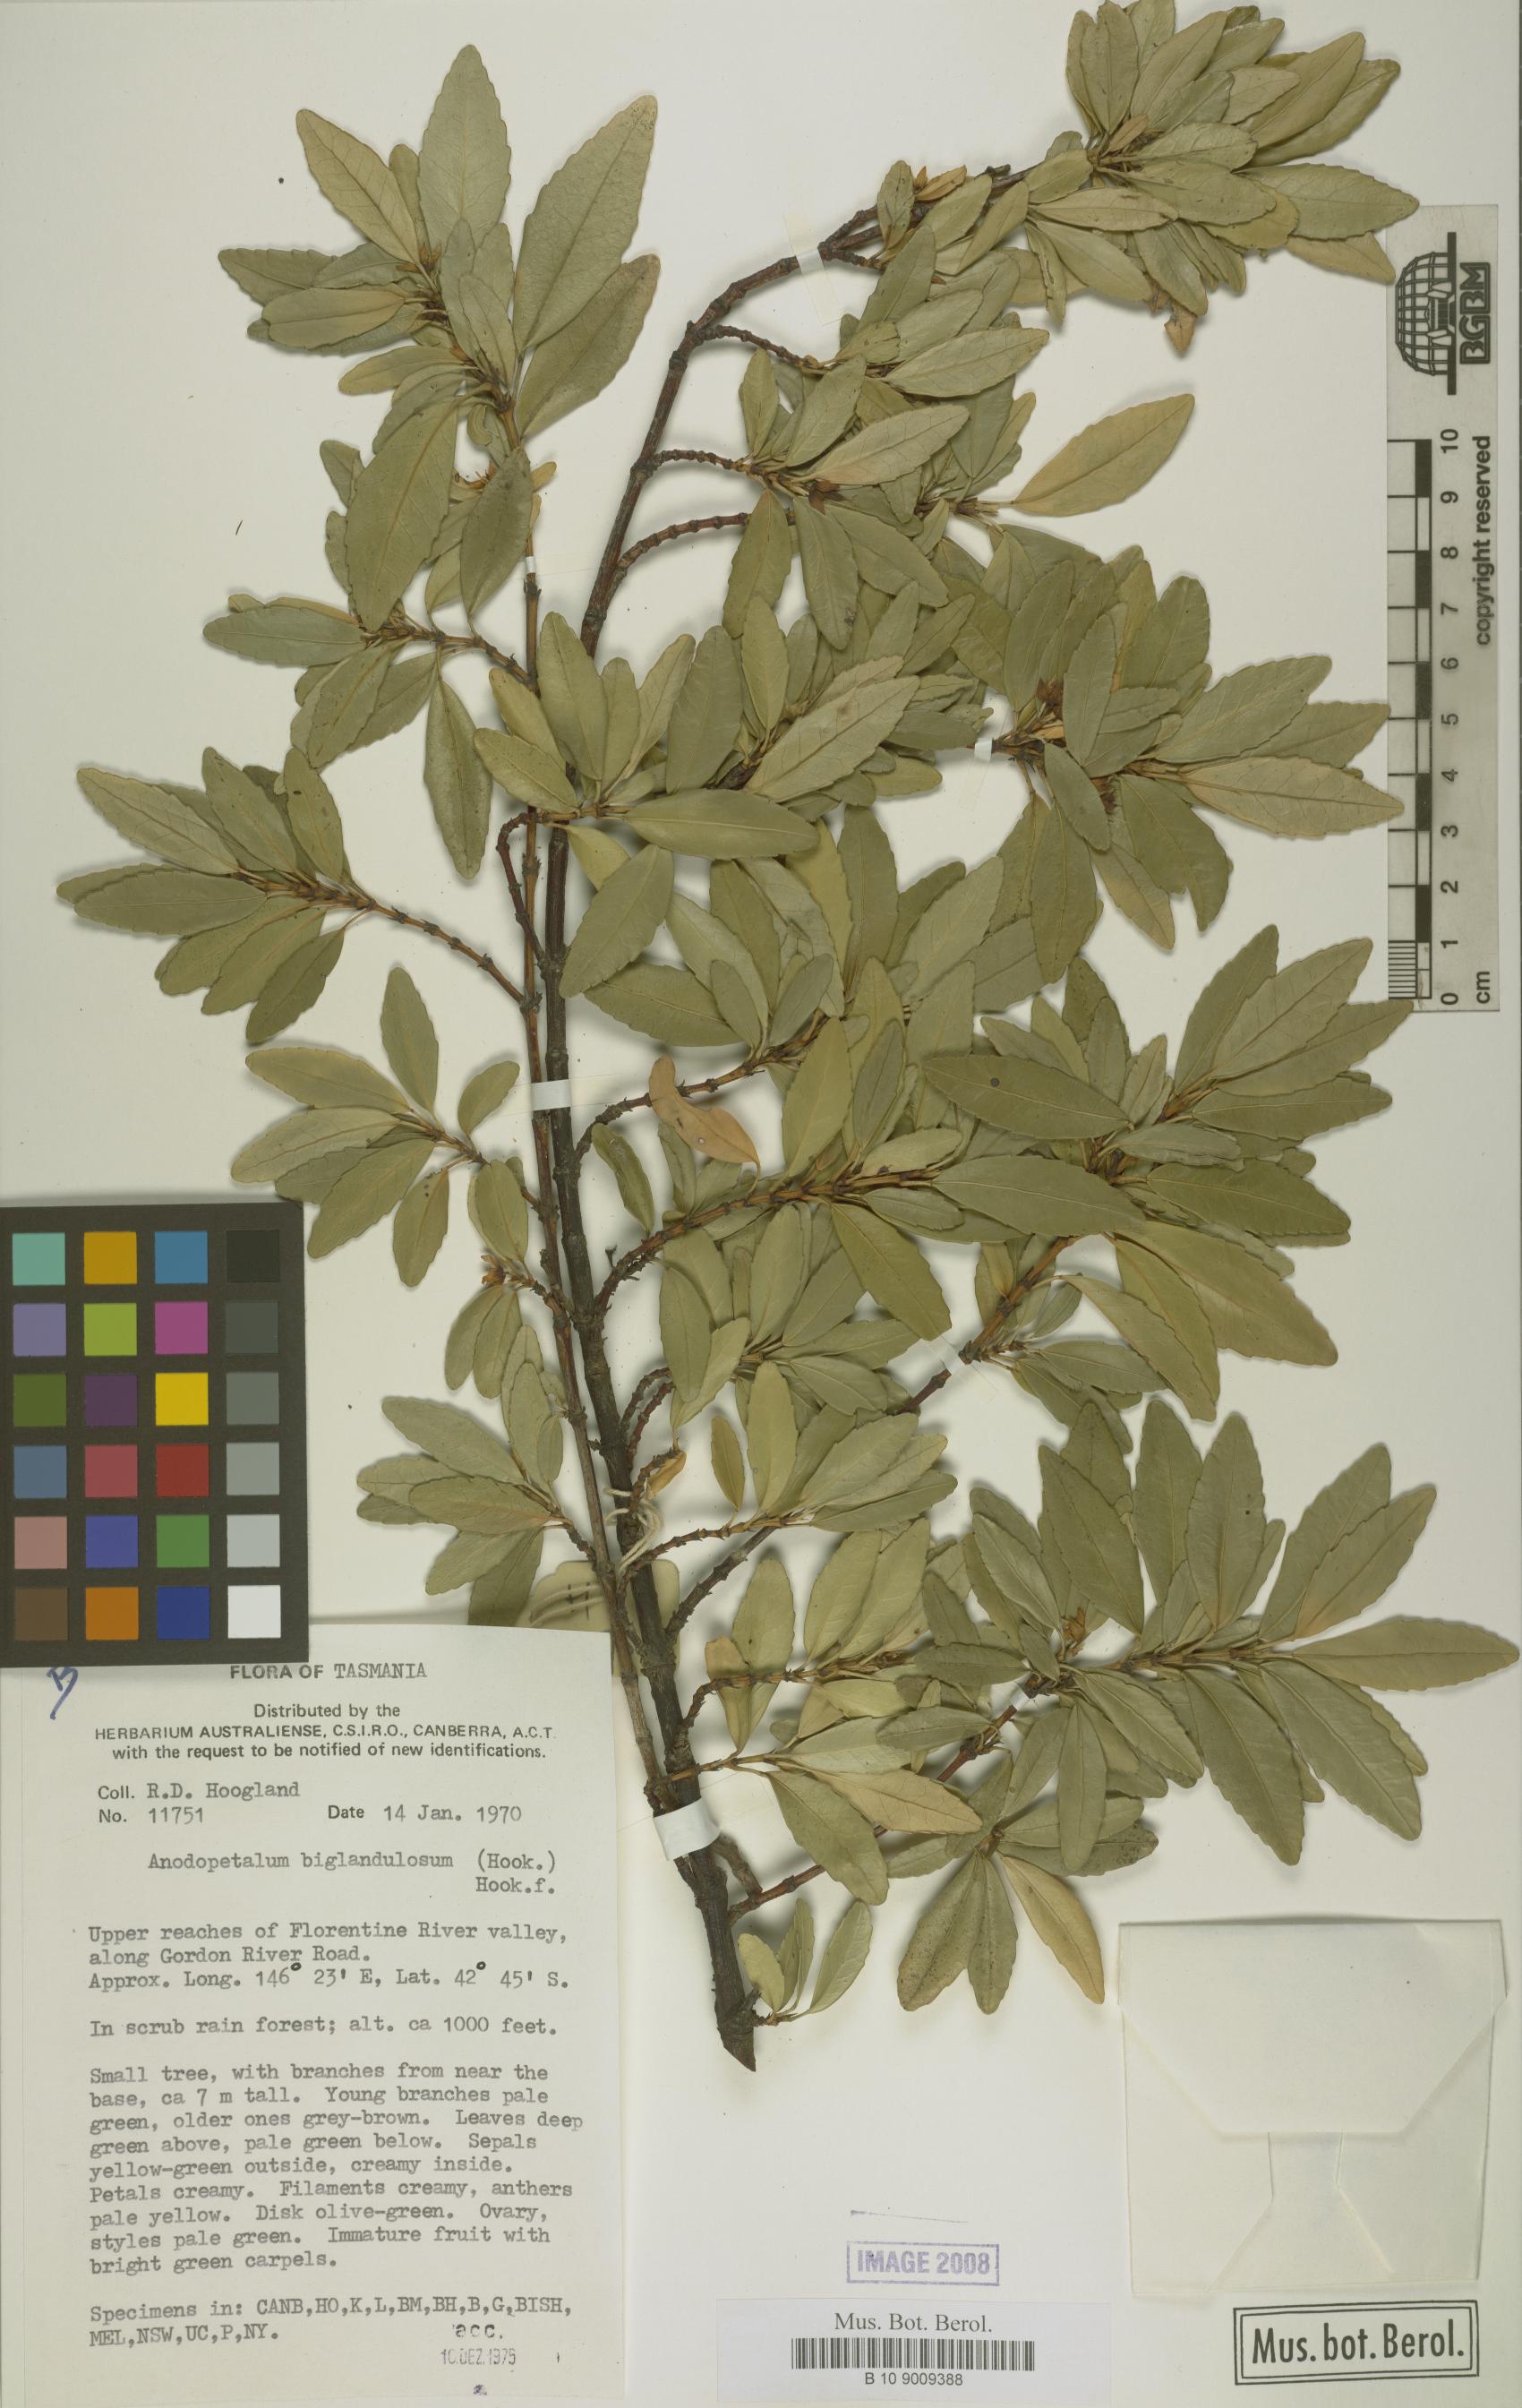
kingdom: Plantae
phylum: Tracheophyta
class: Magnoliopsida
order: Oxalidales
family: Cunoniaceae
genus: Anodopetalum
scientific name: Anodopetalum biglandulosum
